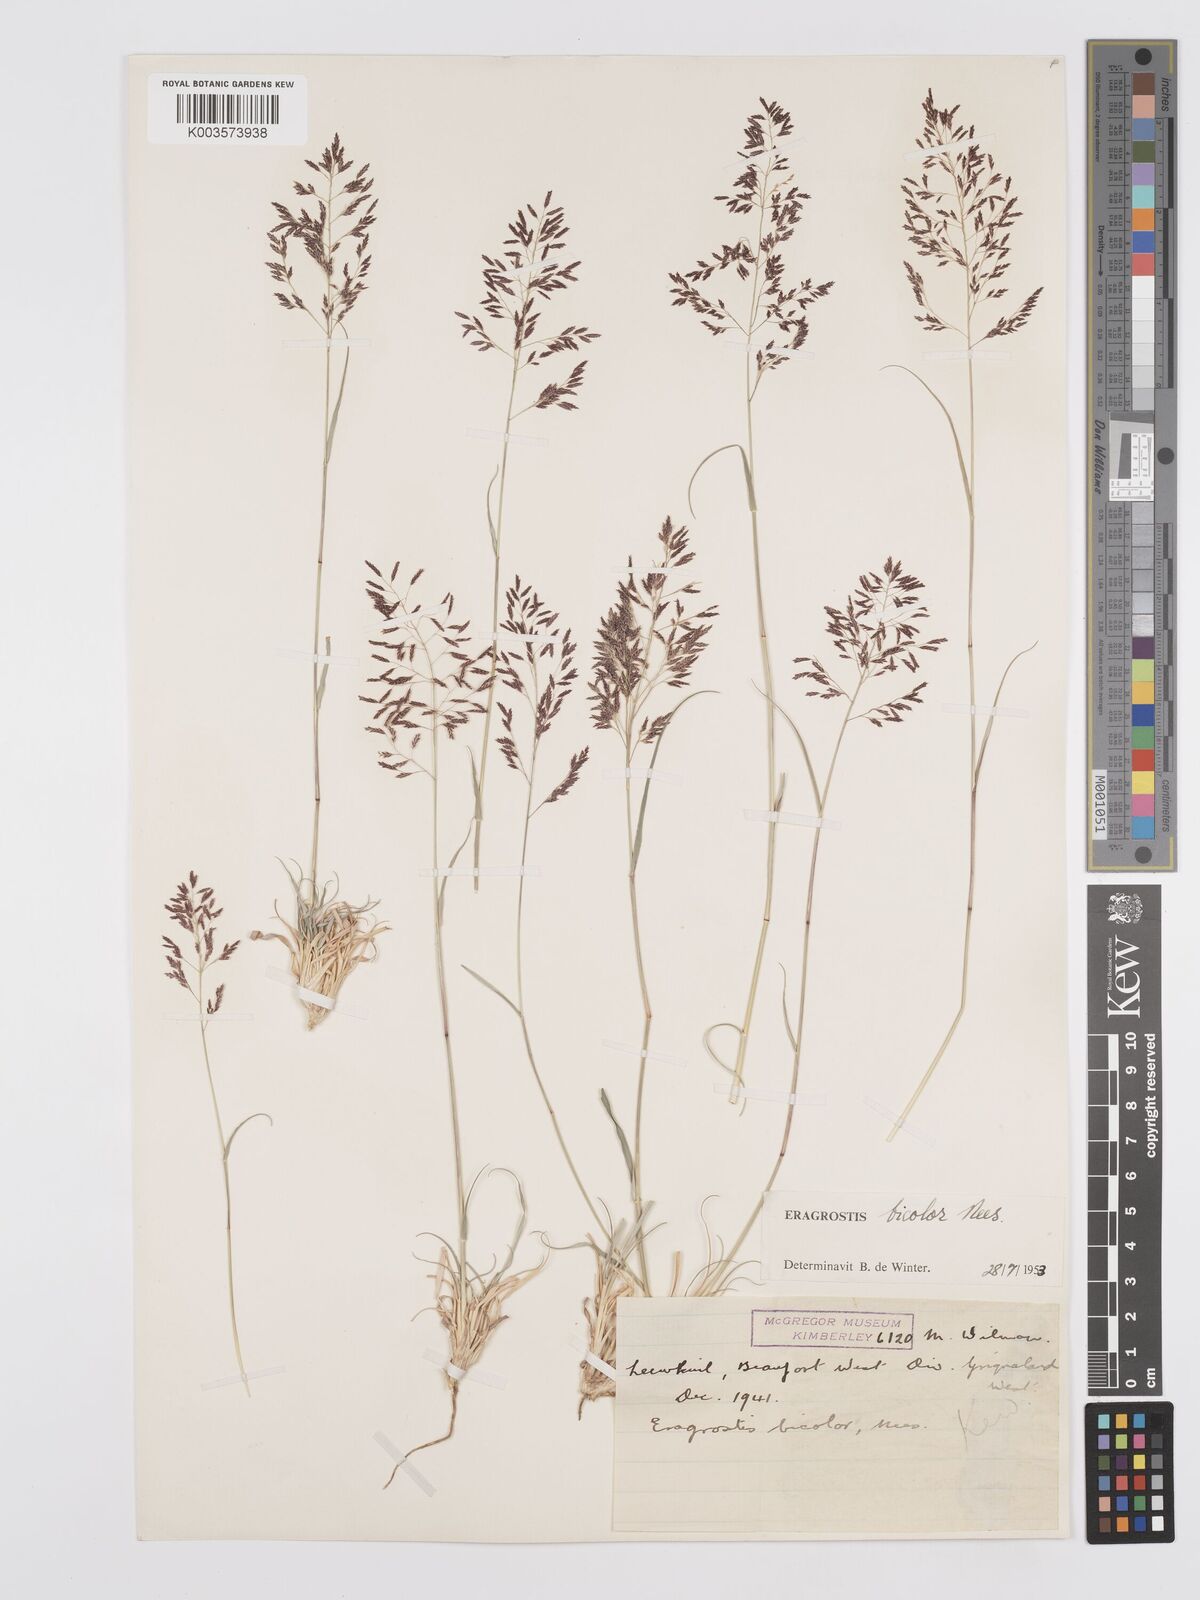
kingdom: Plantae
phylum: Tracheophyta
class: Liliopsida
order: Poales
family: Poaceae
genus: Eragrostis
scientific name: Eragrostis
